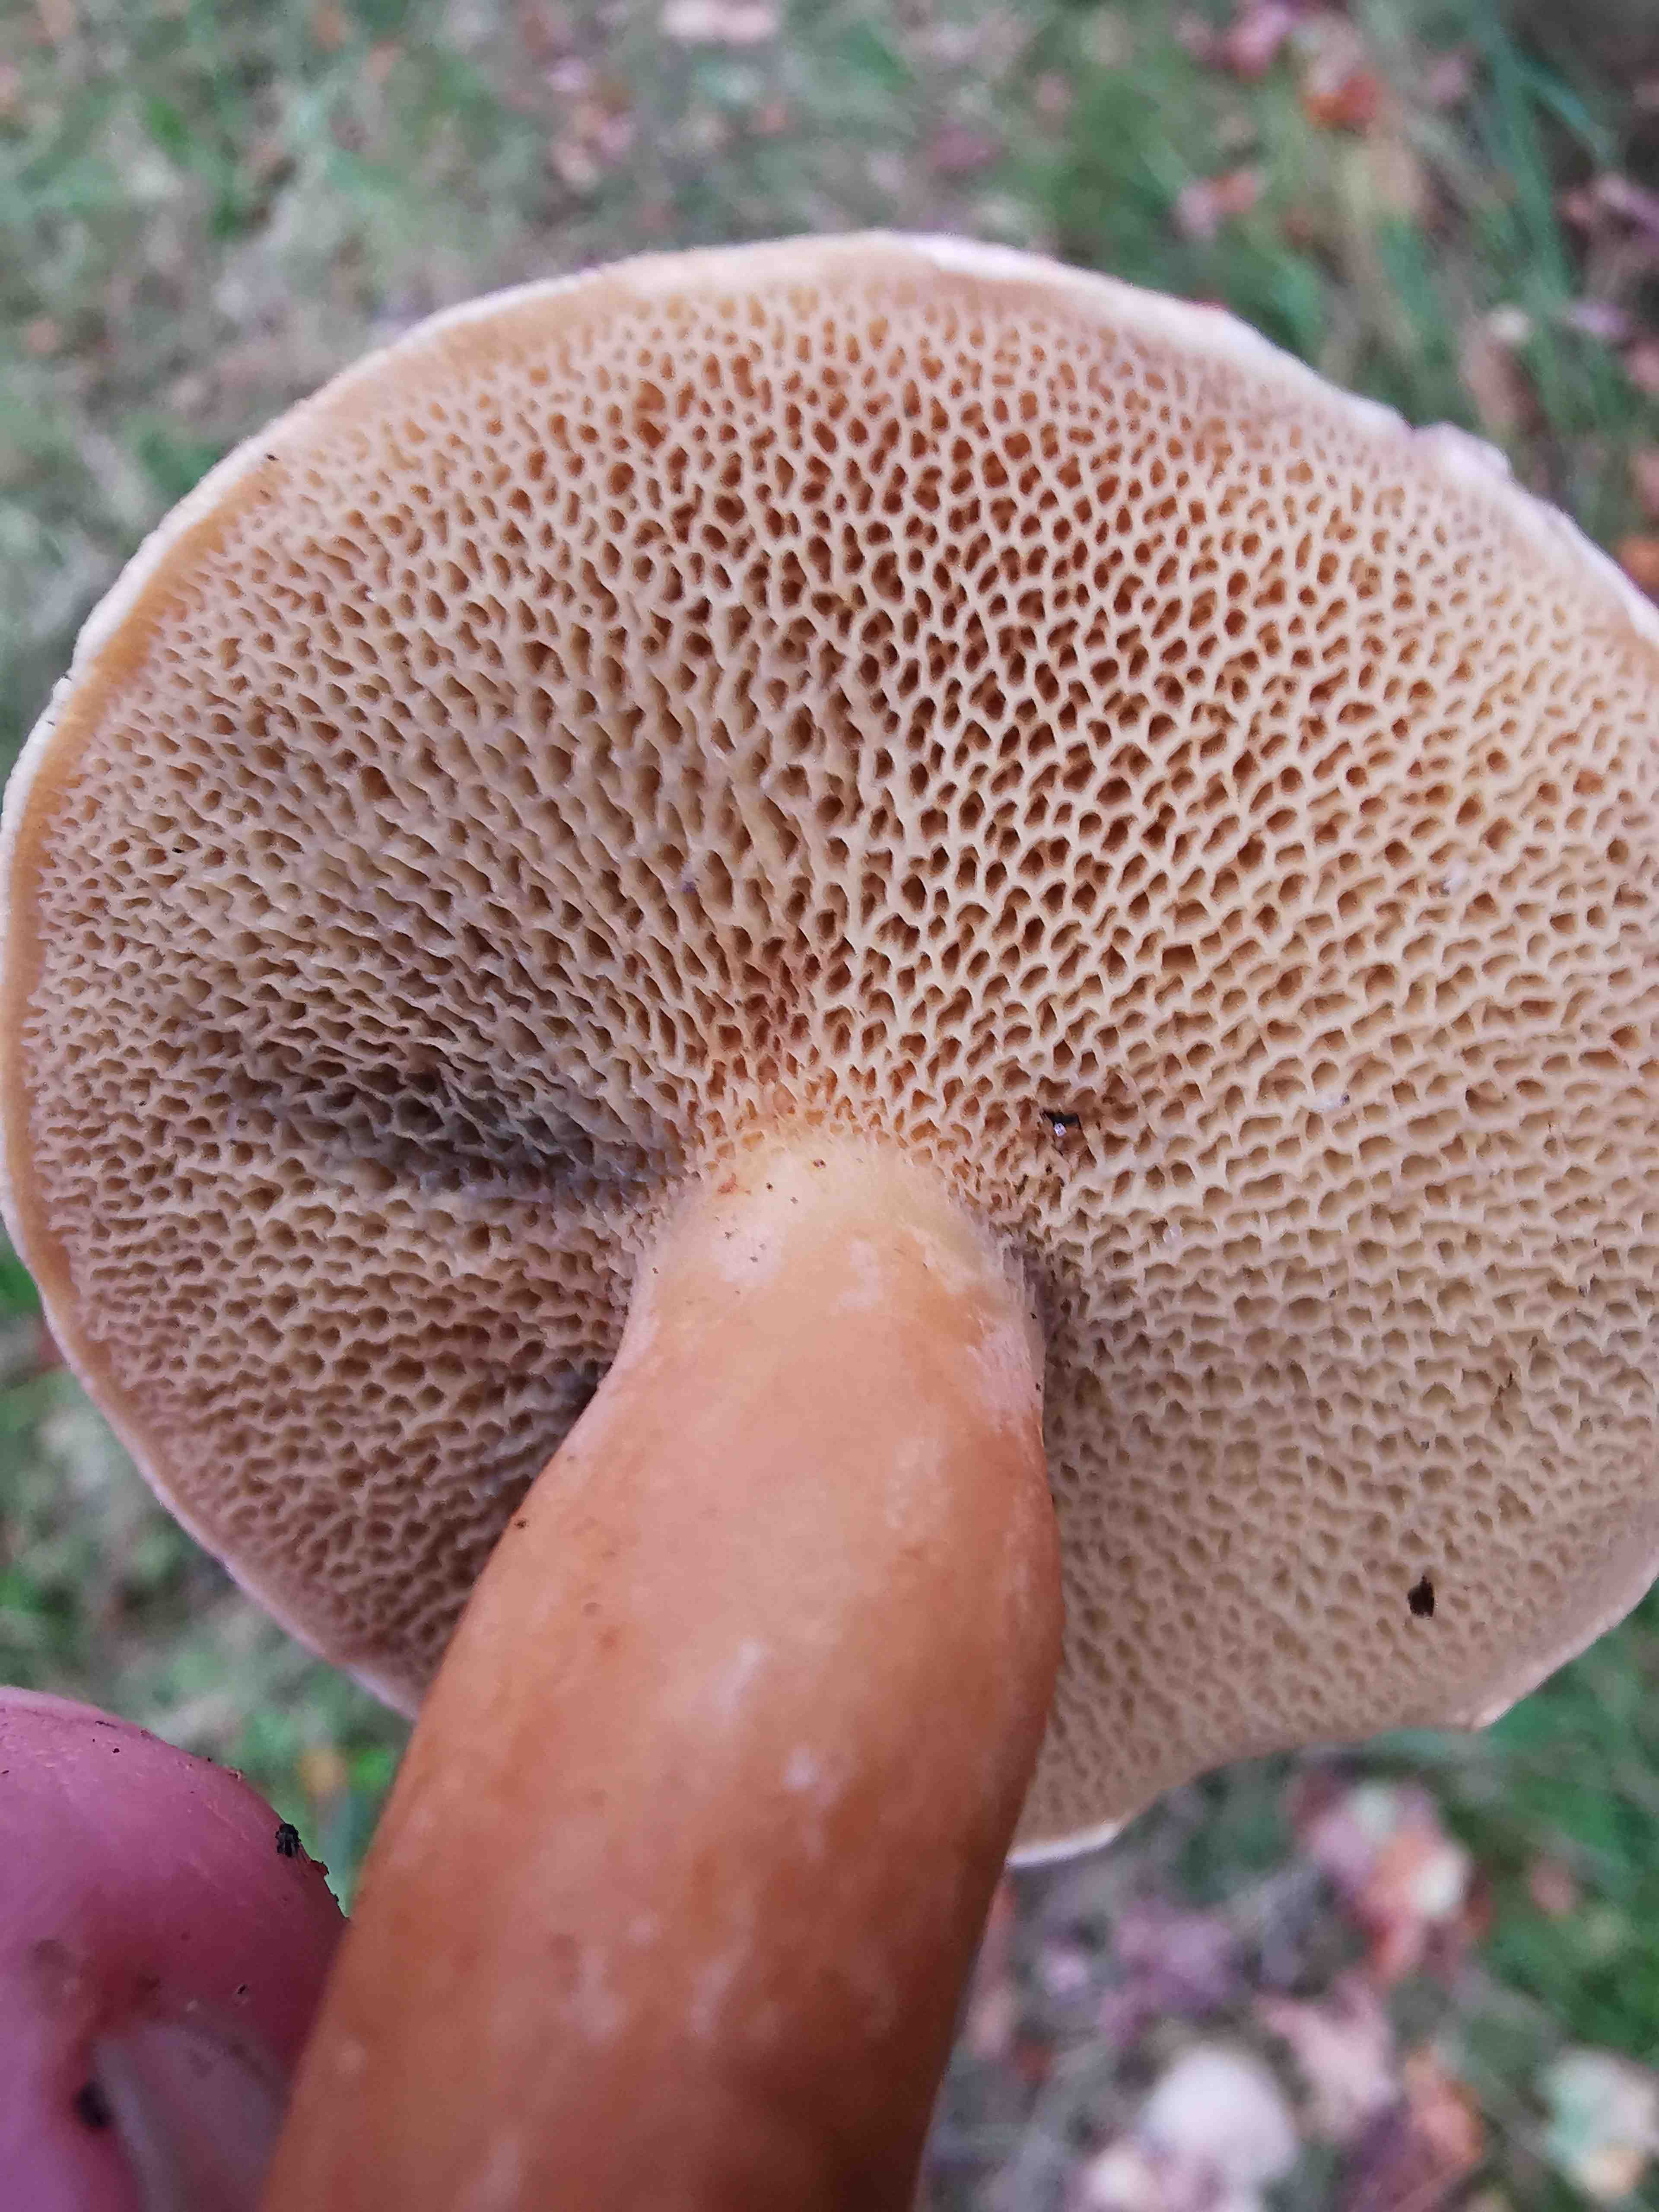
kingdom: Fungi
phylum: Basidiomycota
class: Agaricomycetes
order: Boletales
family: Suillaceae
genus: Suillus
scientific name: Suillus bovinus
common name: grovporet slimrørhat
